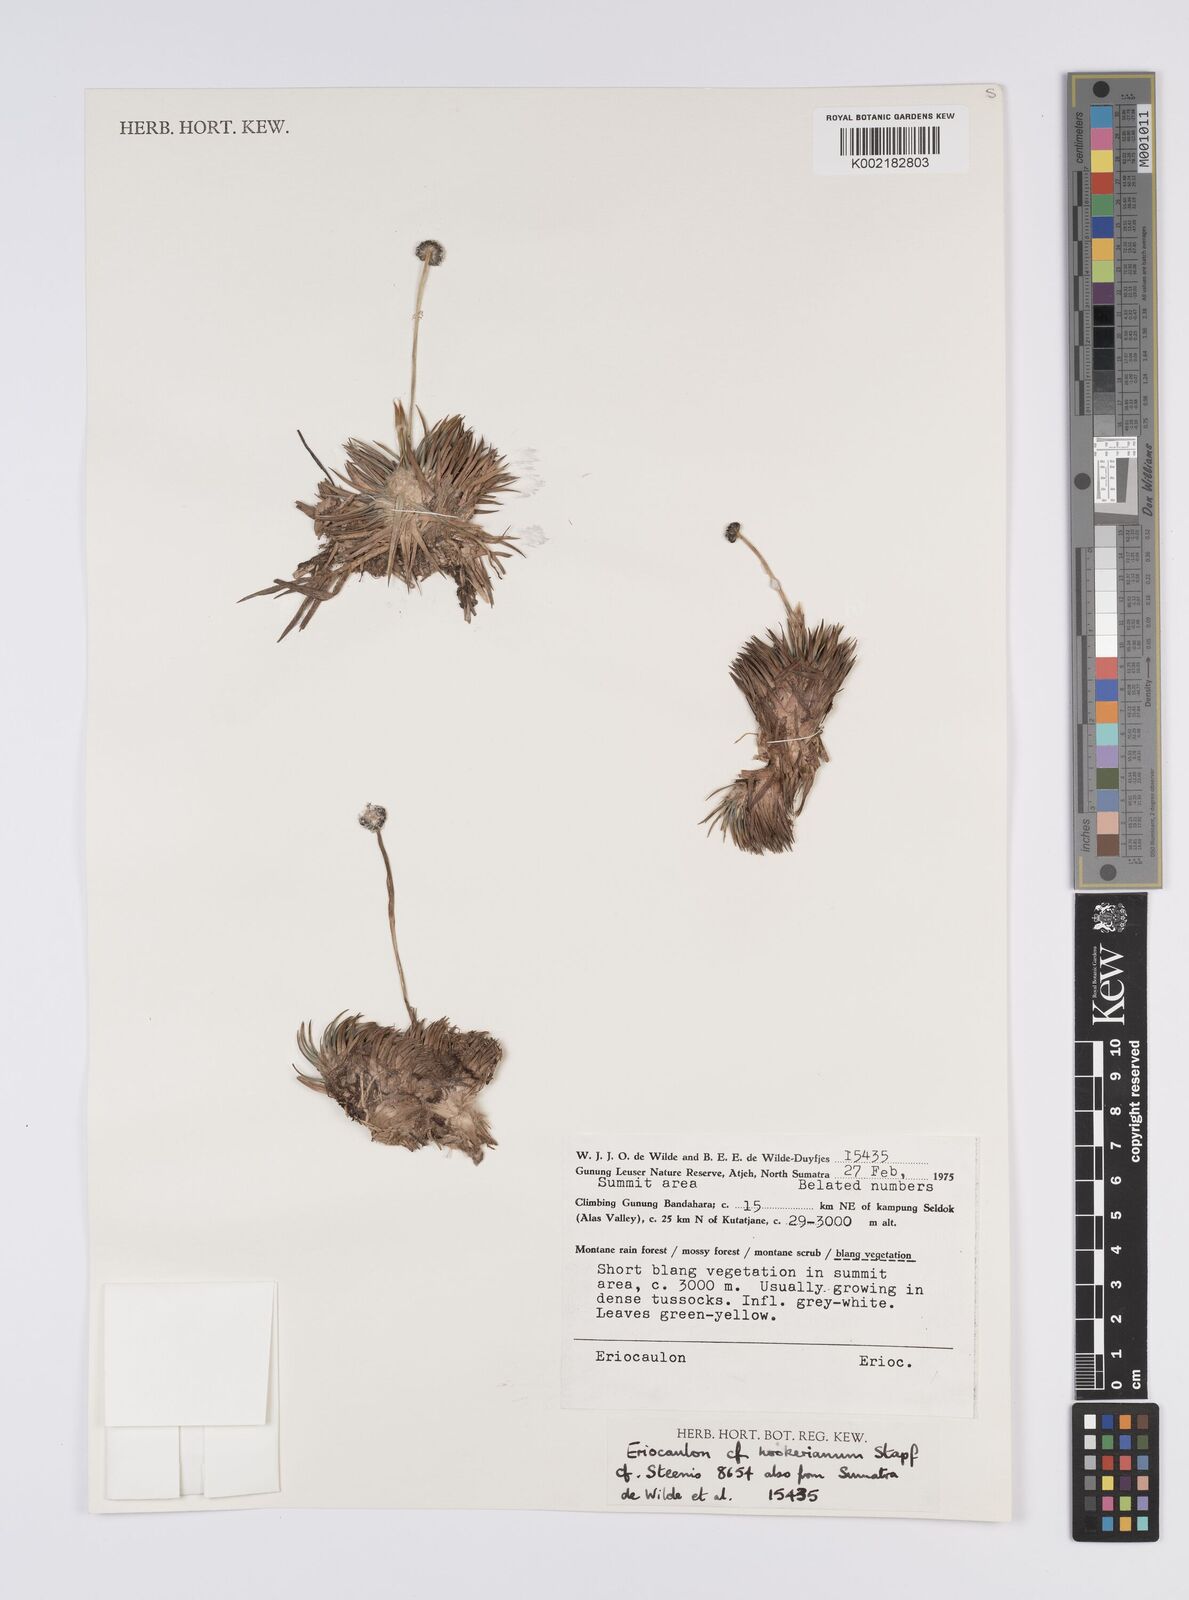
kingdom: Plantae
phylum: Tracheophyta
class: Liliopsida
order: Poales
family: Eriocaulaceae
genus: Eriocaulon
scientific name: Eriocaulon hookerianum
